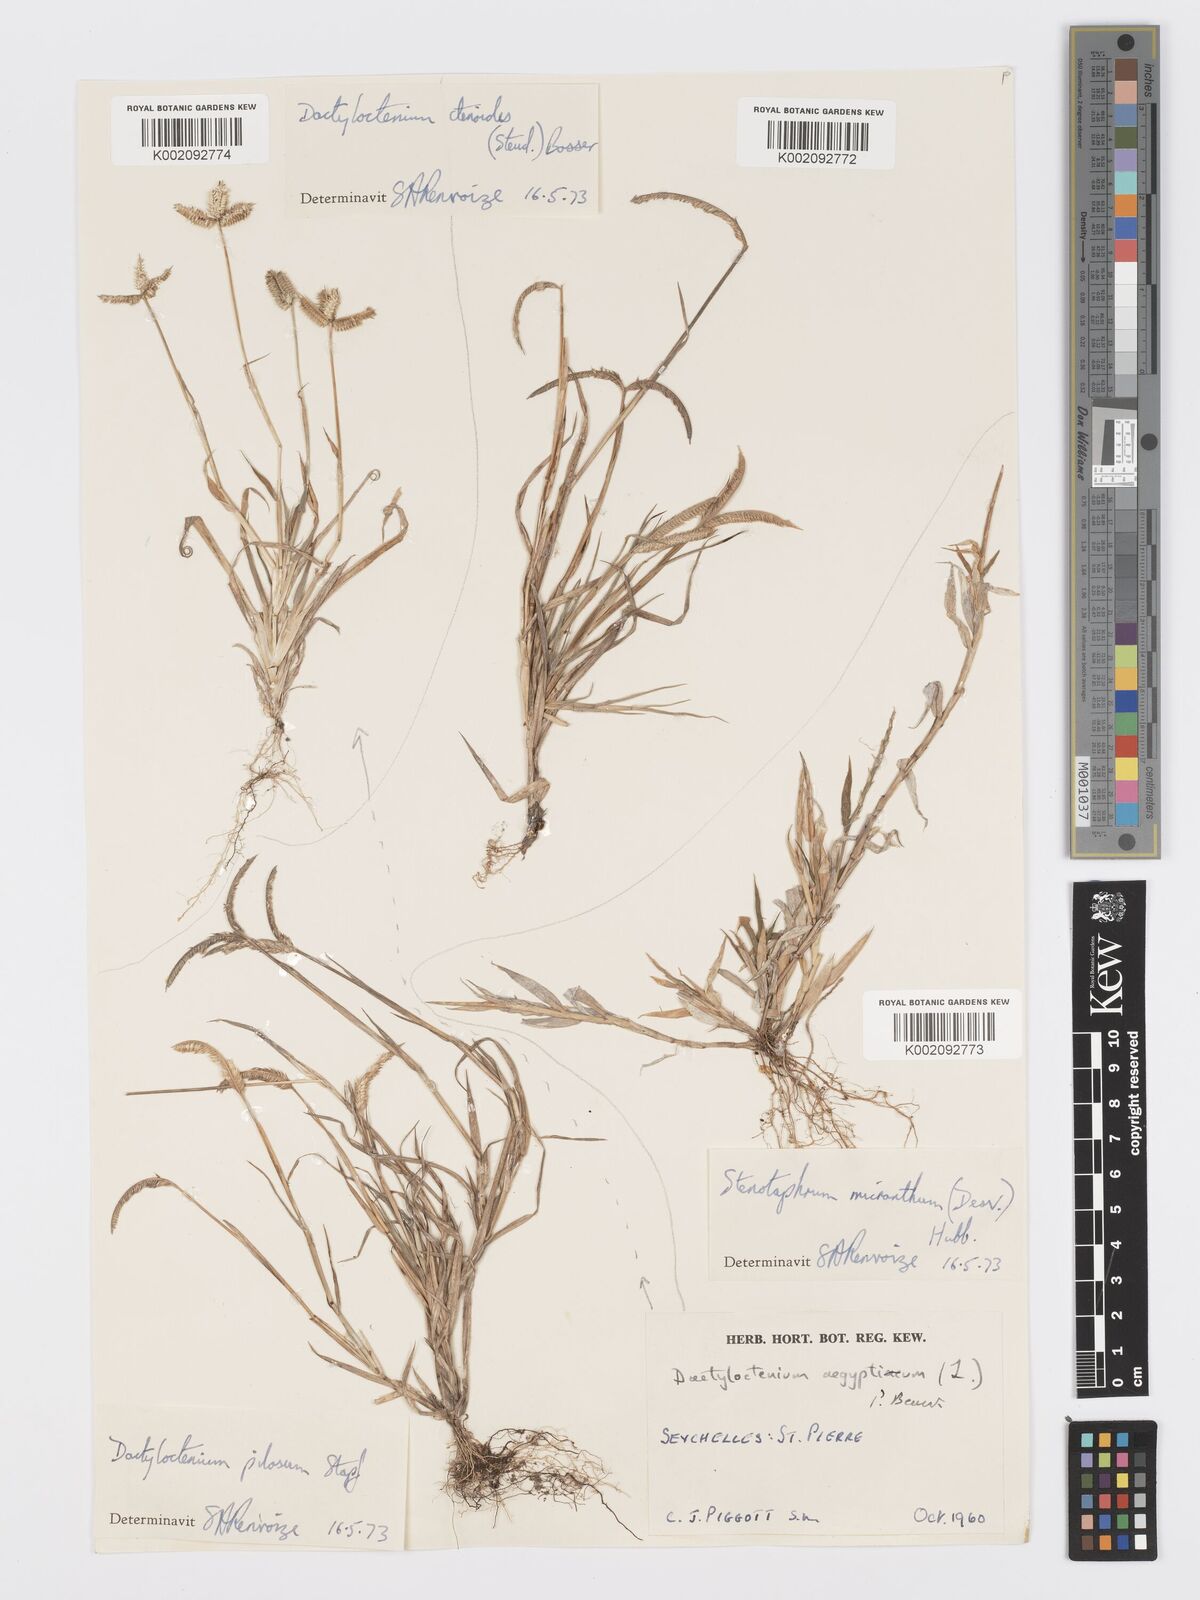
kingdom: Plantae
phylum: Tracheophyta
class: Liliopsida
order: Poales
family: Poaceae
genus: Dactyloctenium
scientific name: Dactyloctenium ctenoides
